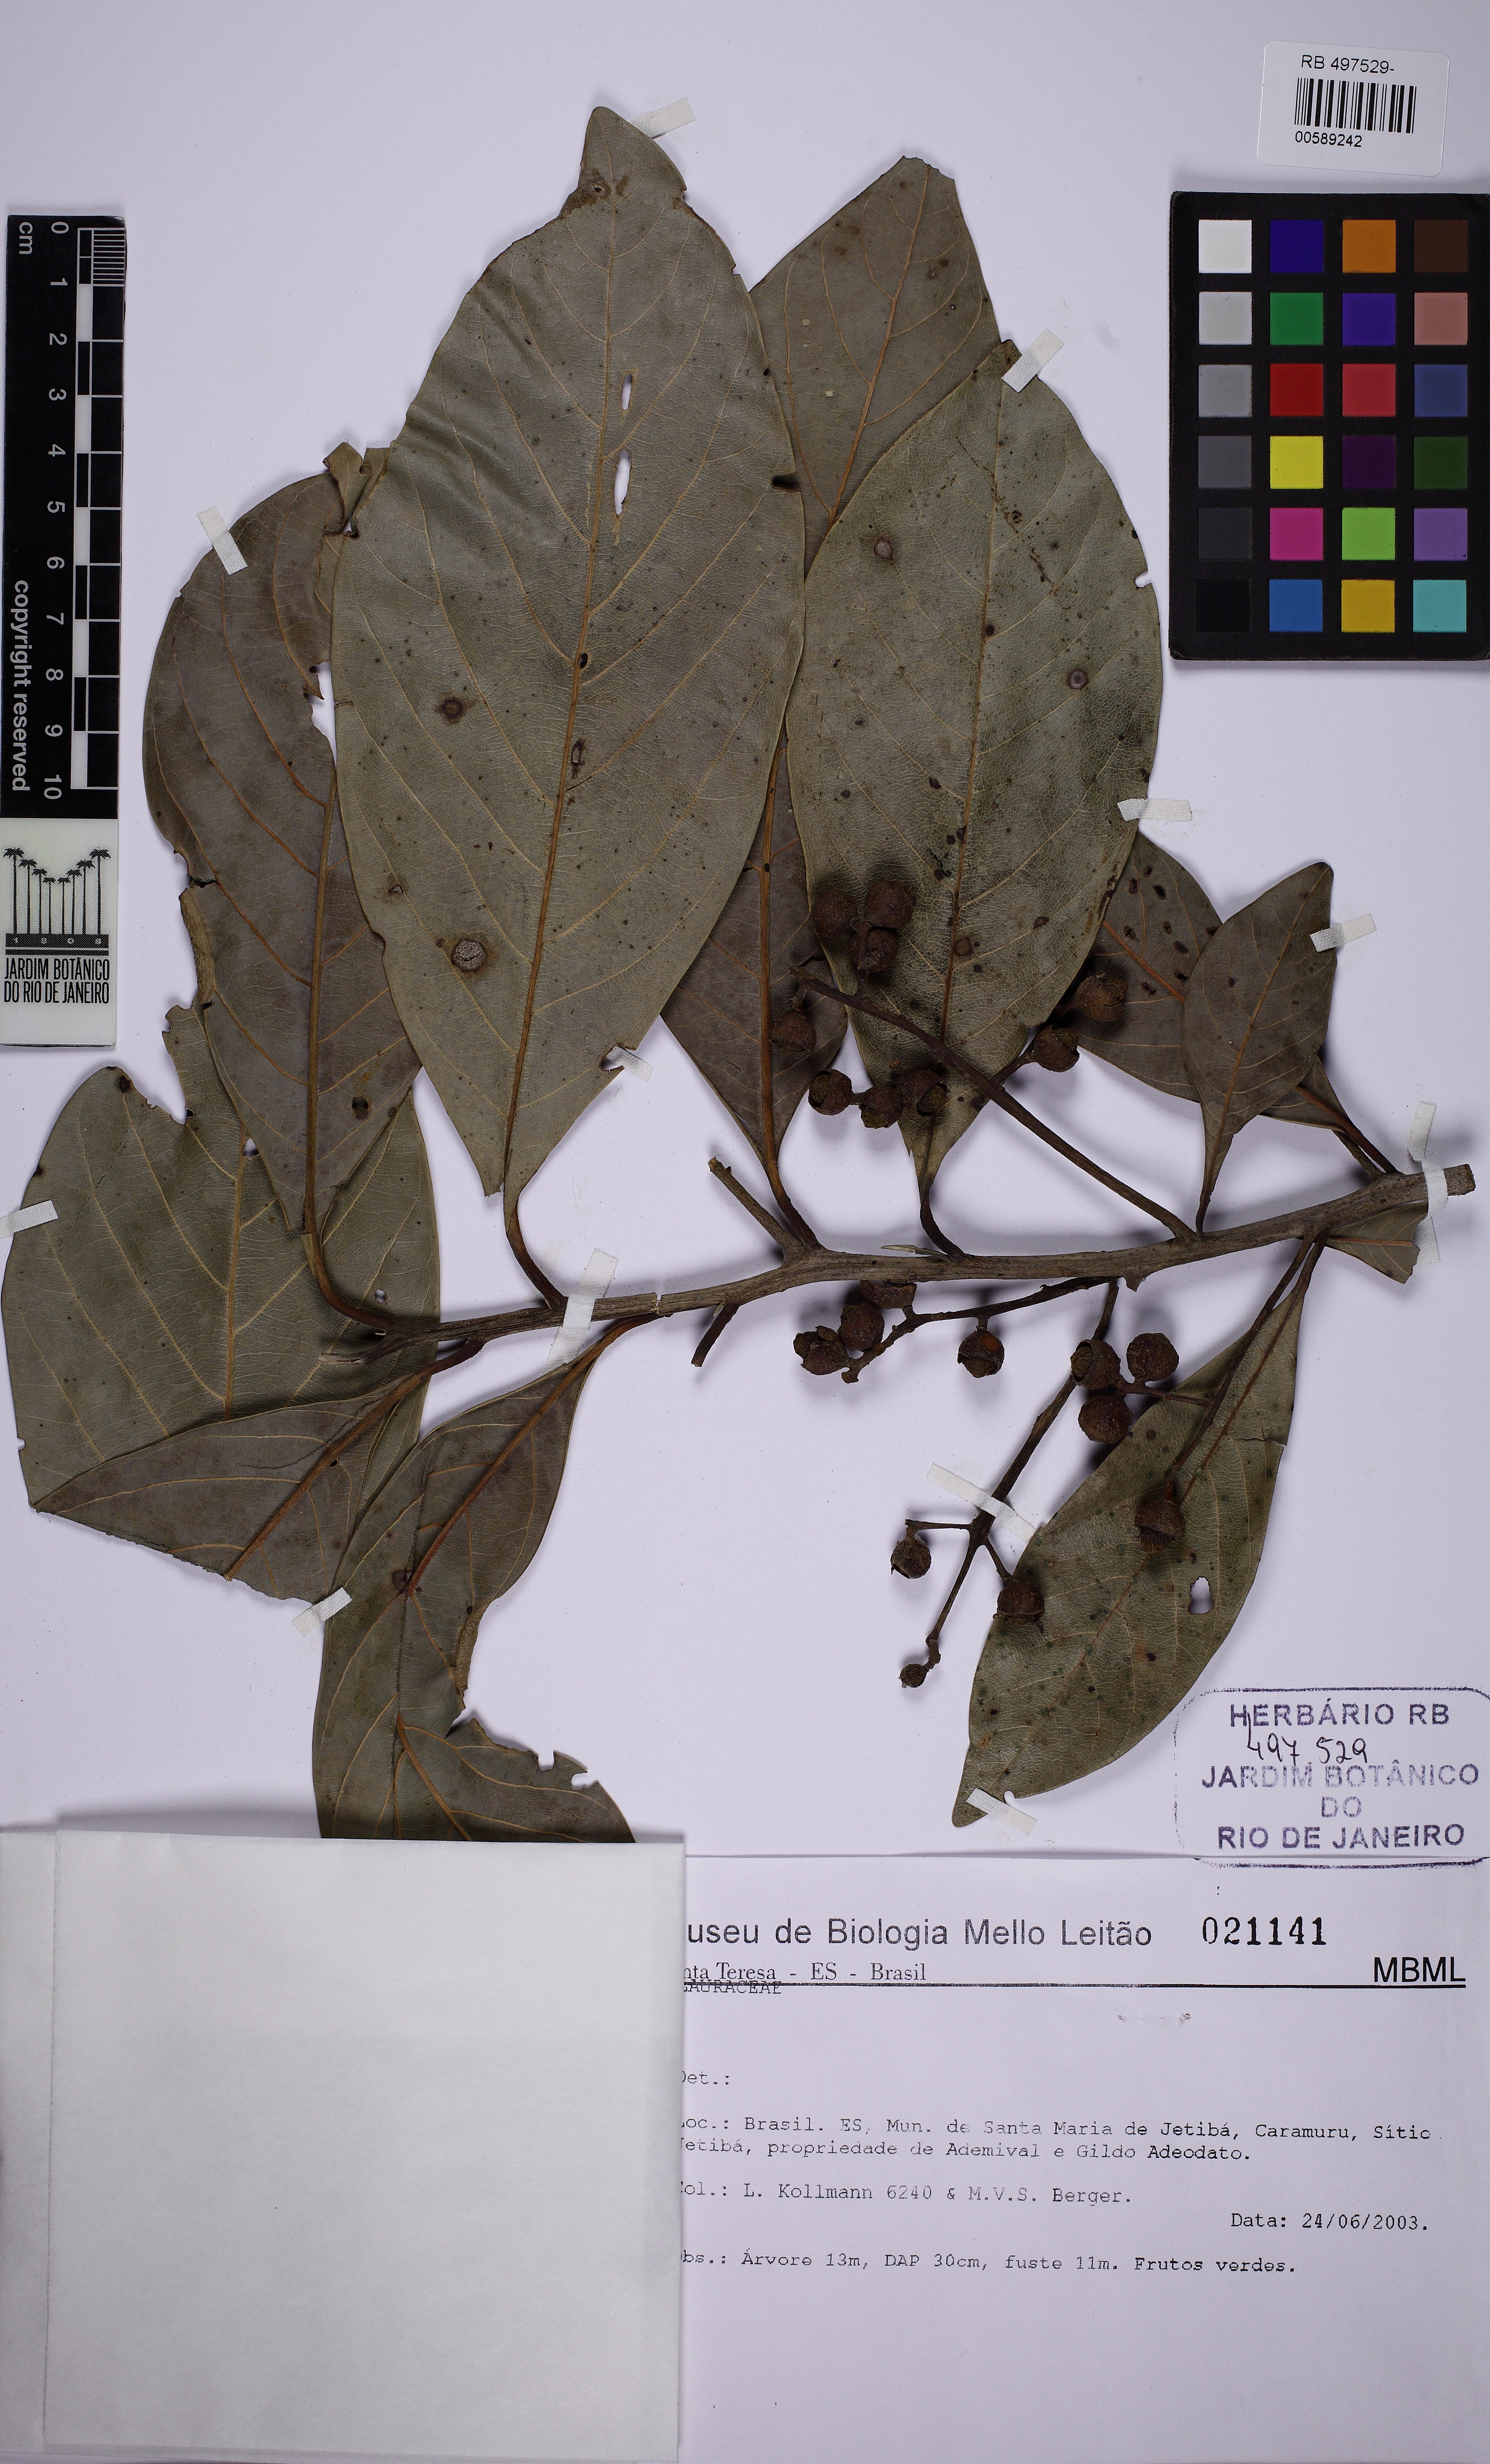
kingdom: Plantae
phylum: Tracheophyta
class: Magnoliopsida
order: Laurales
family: Lauraceae
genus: Ocotea
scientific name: Ocotea glomerata
